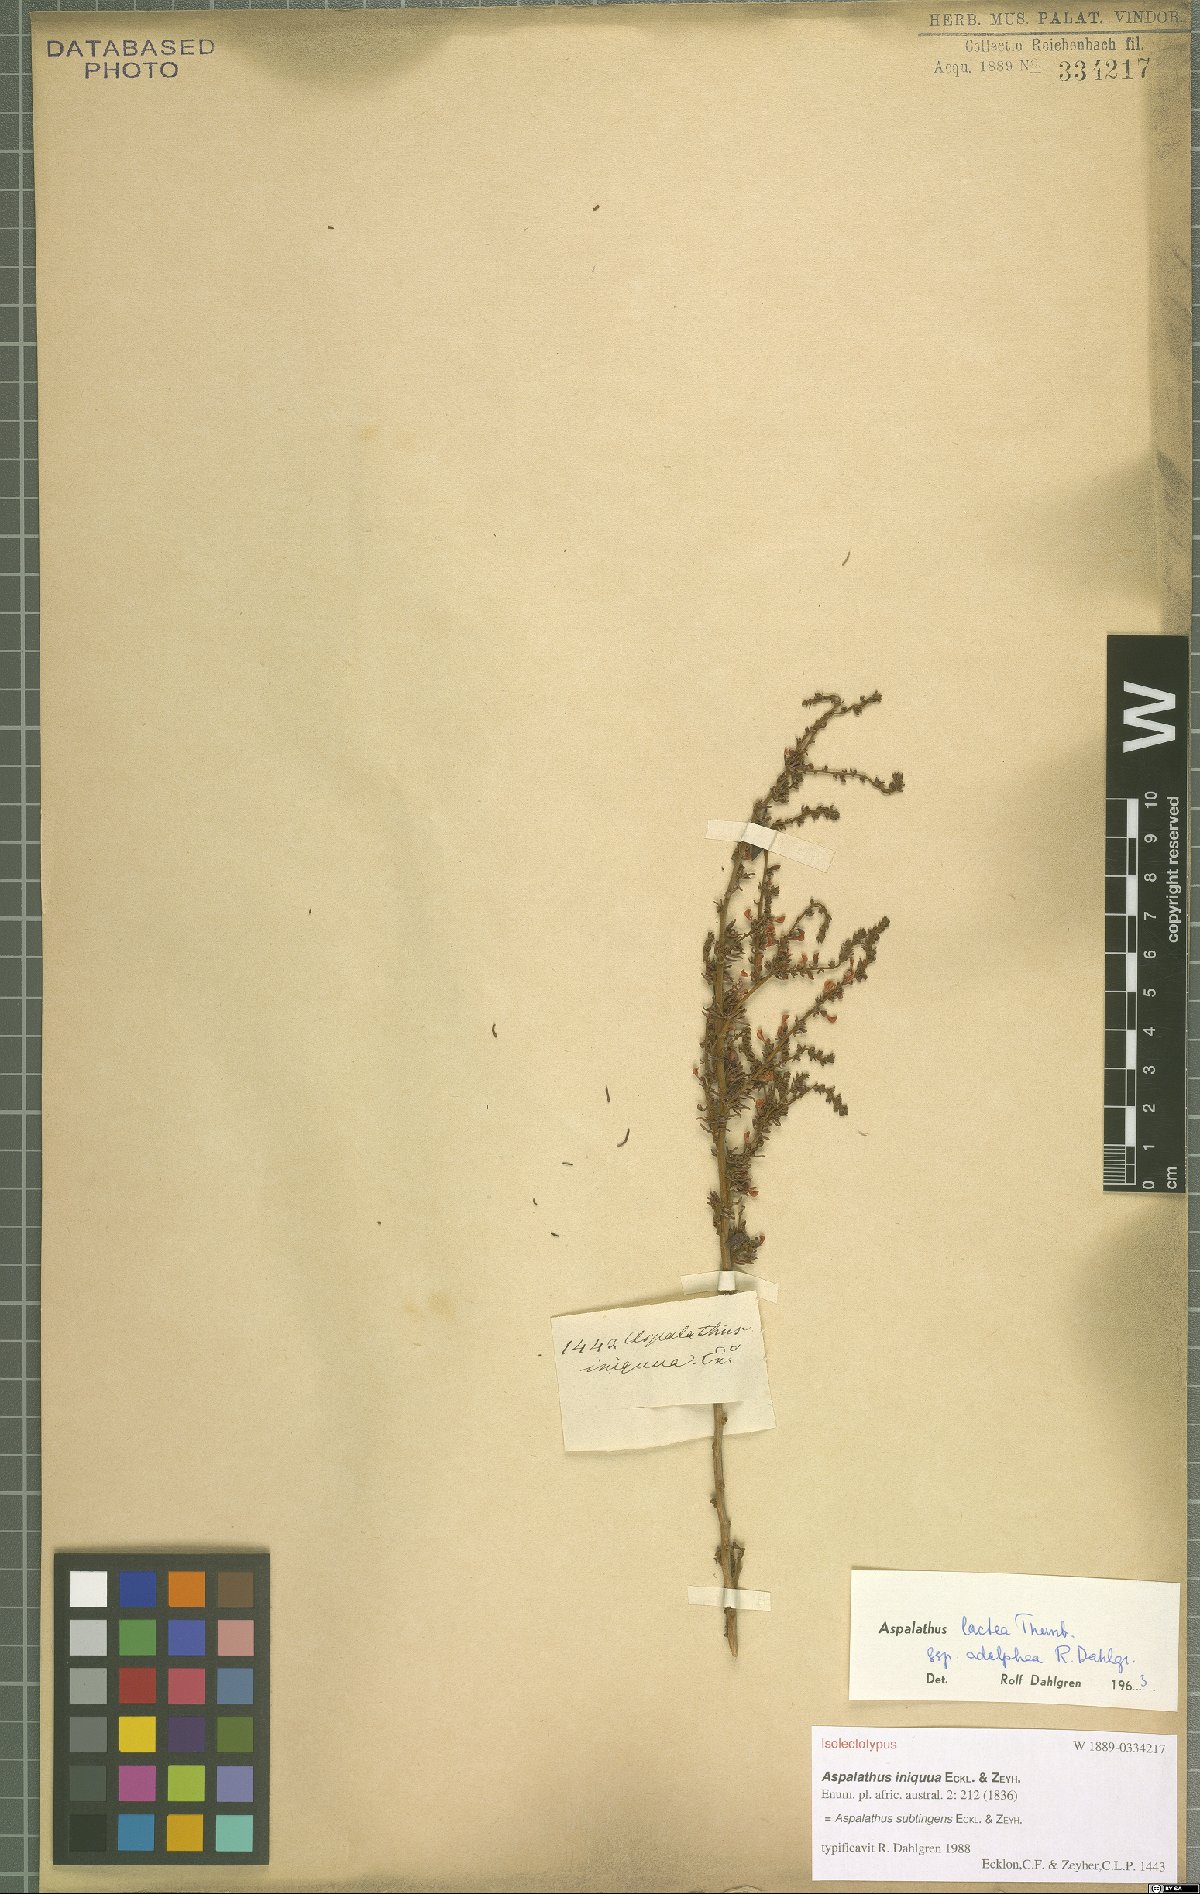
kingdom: Plantae
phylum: Tracheophyta
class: Magnoliopsida
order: Fabales
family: Fabaceae
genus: Aspalathus
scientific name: Aspalathus subtingens
